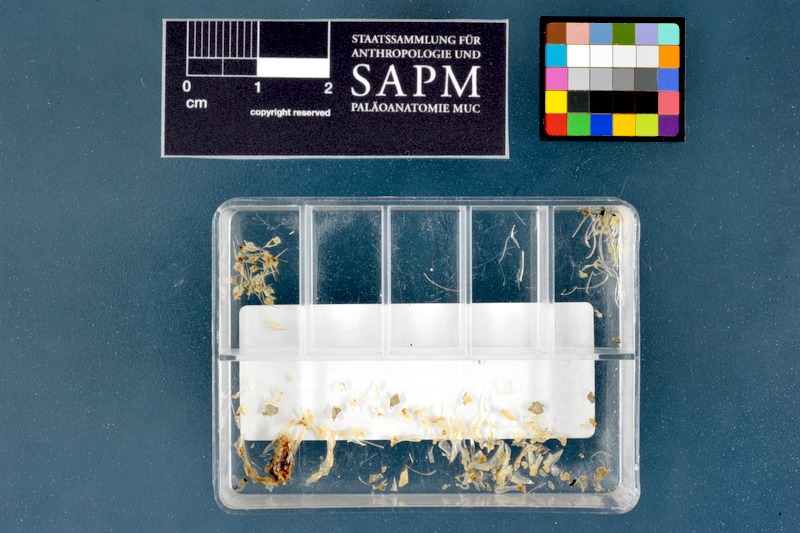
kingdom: Animalia
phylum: Chordata
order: Perciformes
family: Blenniidae
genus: Parablennius
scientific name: Parablennius zvonimiri
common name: Red blenny
